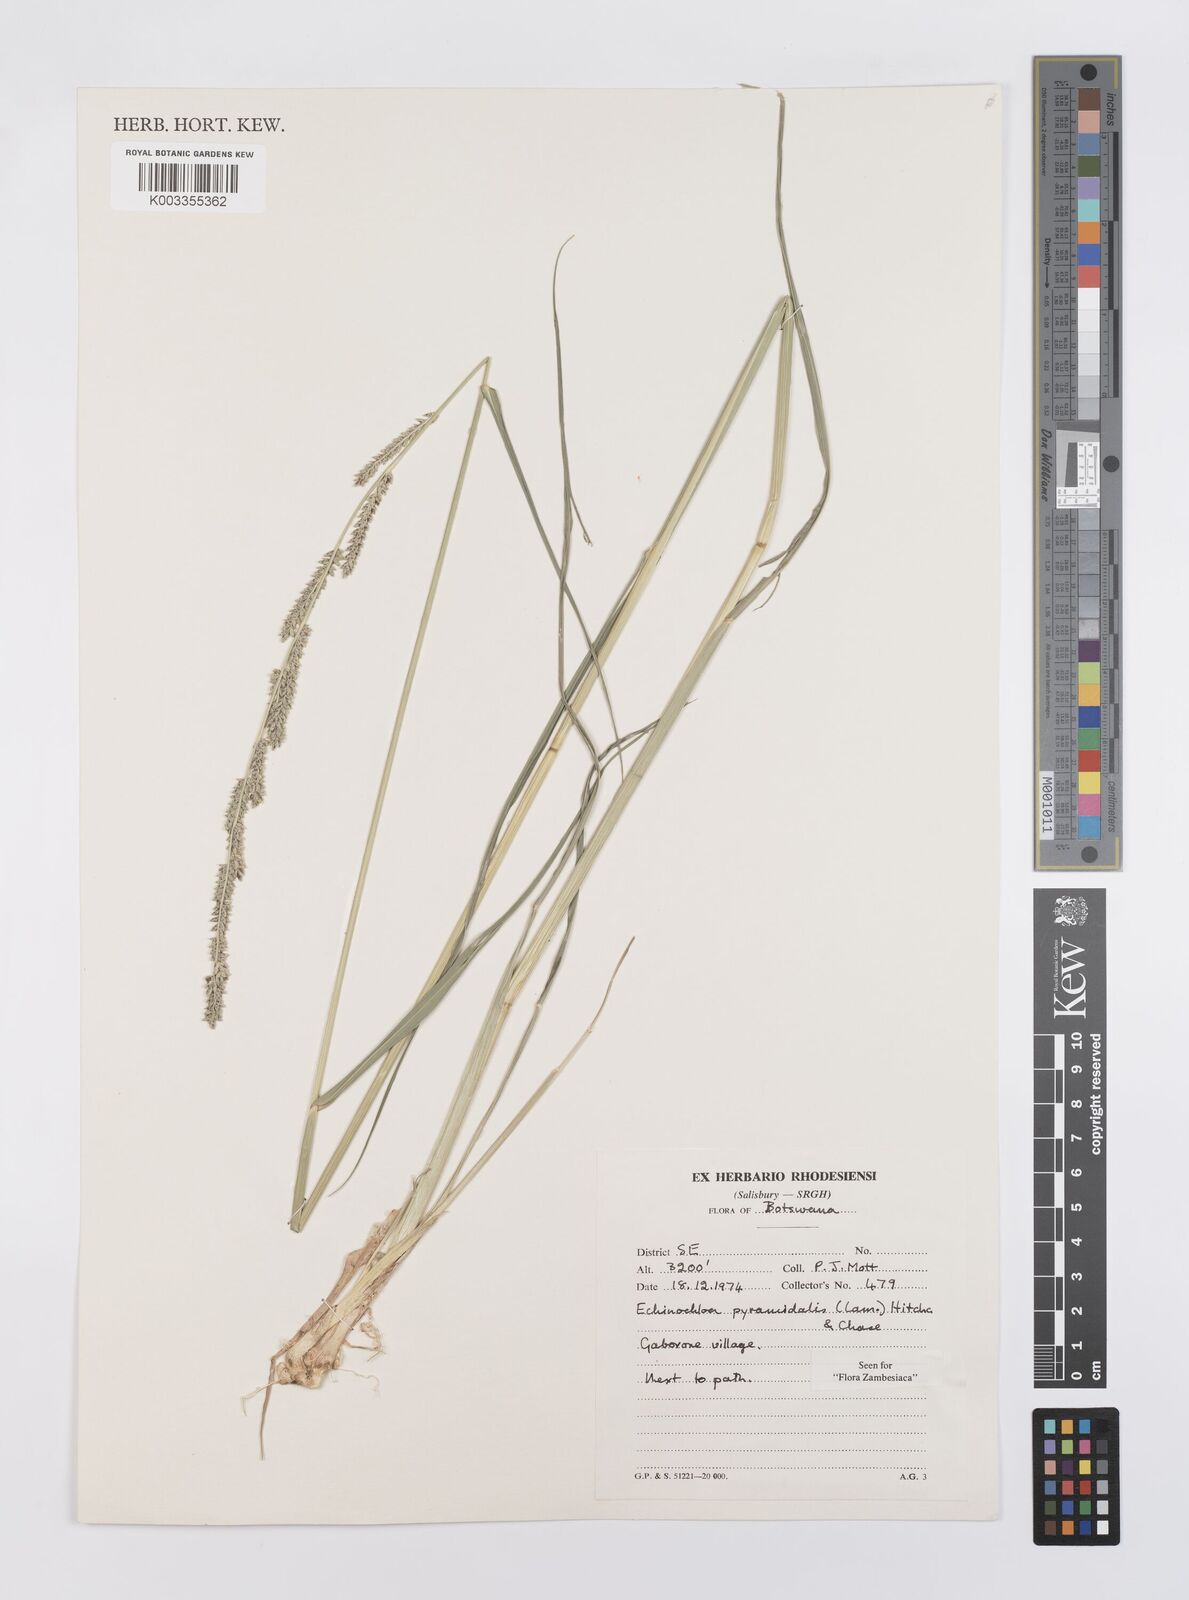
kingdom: Plantae
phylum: Tracheophyta
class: Liliopsida
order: Poales
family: Poaceae
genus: Echinochloa
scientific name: Echinochloa pyramidalis
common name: Antelope grass
